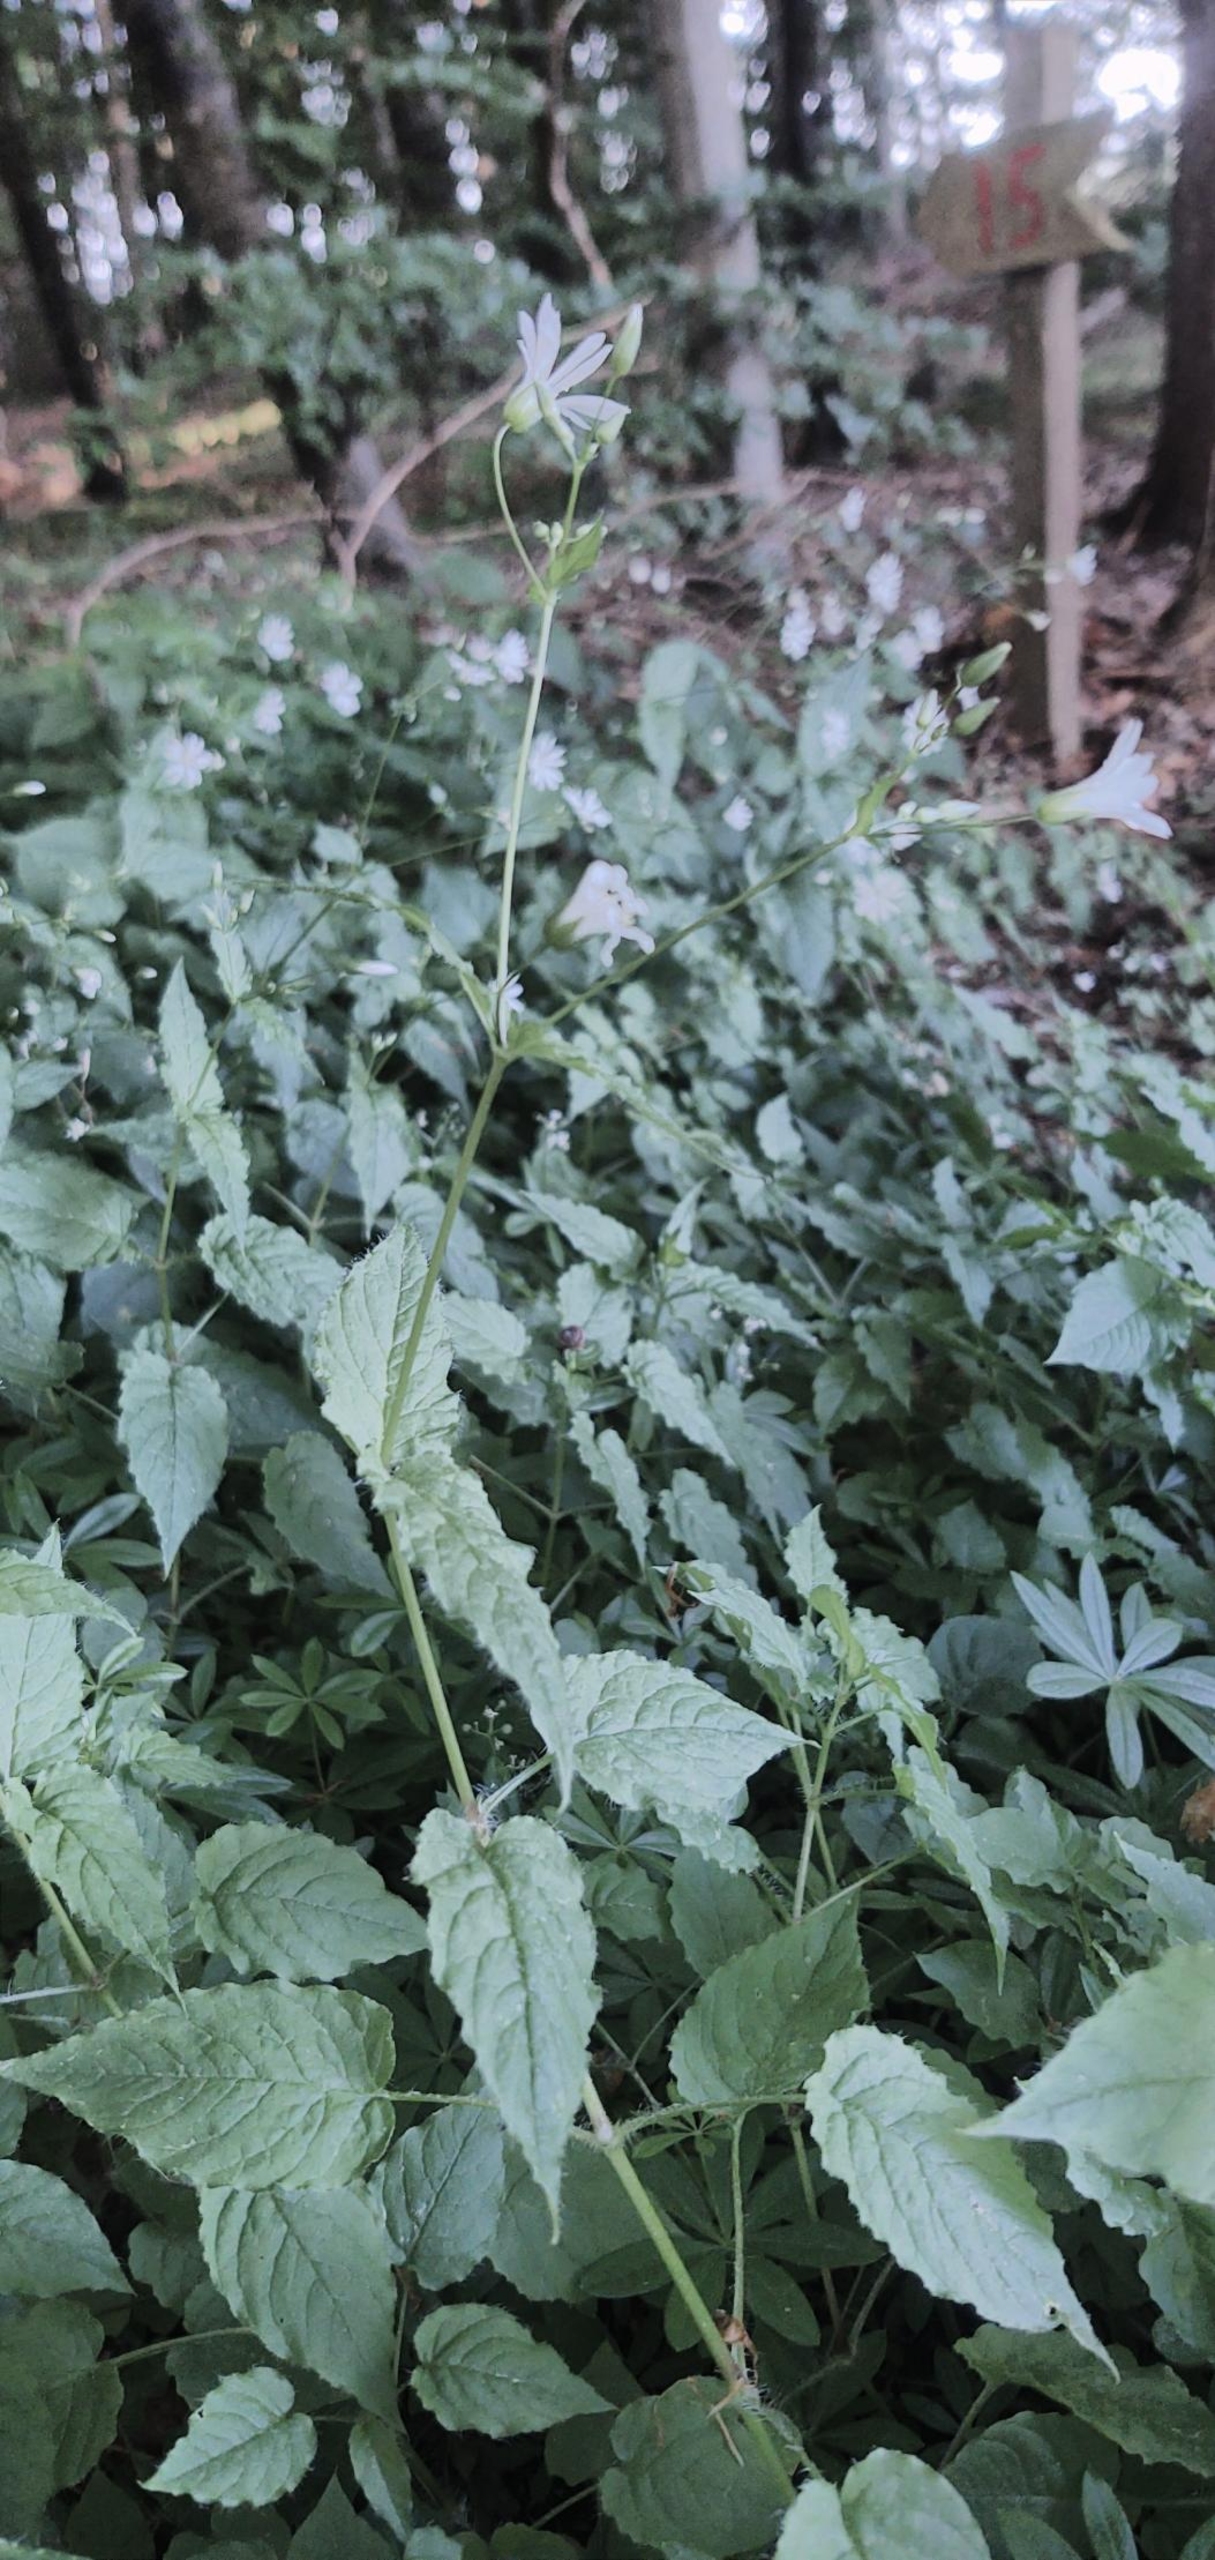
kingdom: Plantae
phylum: Tracheophyta
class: Magnoliopsida
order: Caryophyllales
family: Caryophyllaceae
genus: Stellaria
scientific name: Stellaria glochidisperma
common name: Sydlig lund-fladstjerne
